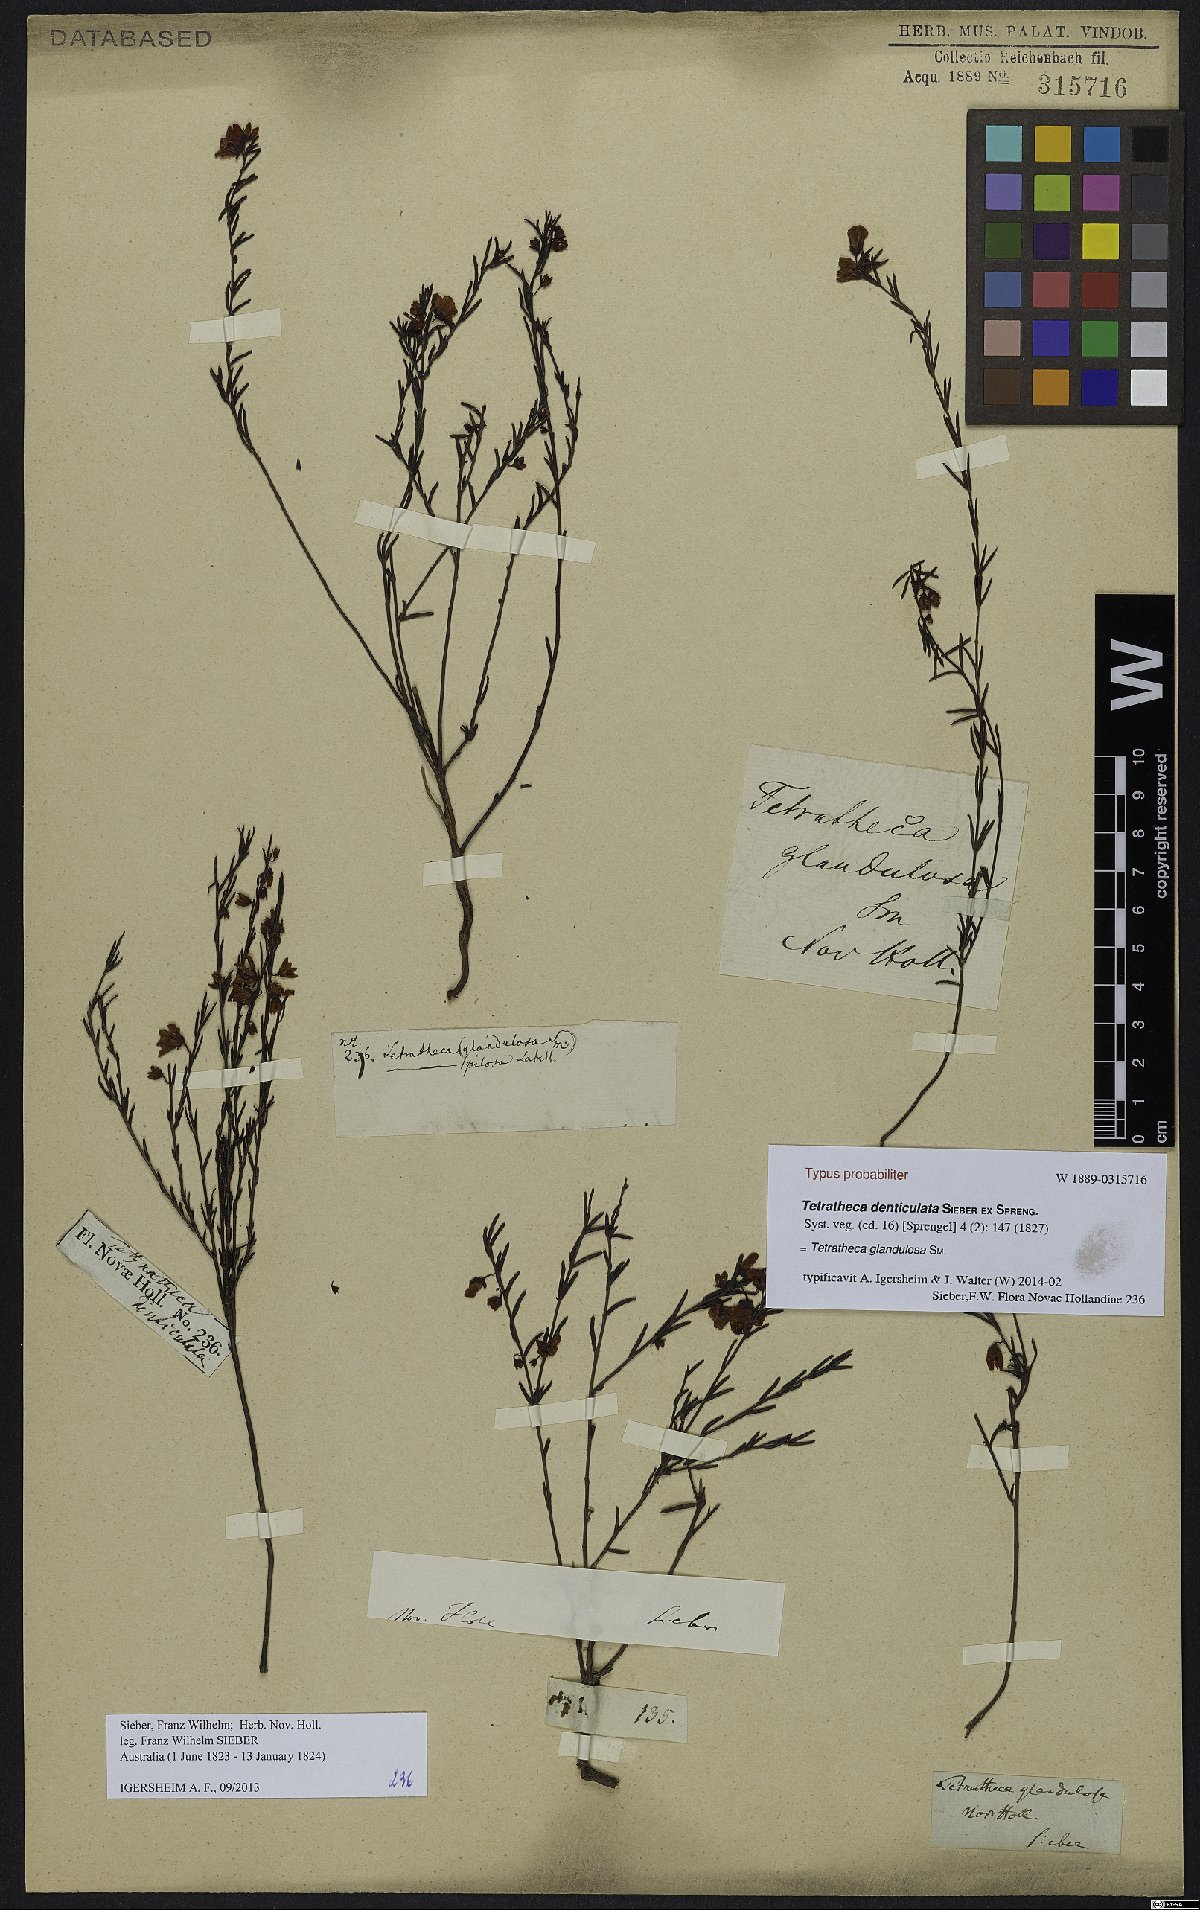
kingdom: Plantae
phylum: Tracheophyta
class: Magnoliopsida
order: Oxalidales
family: Elaeocarpaceae
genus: Tetratheca
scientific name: Tetratheca glandulosa
